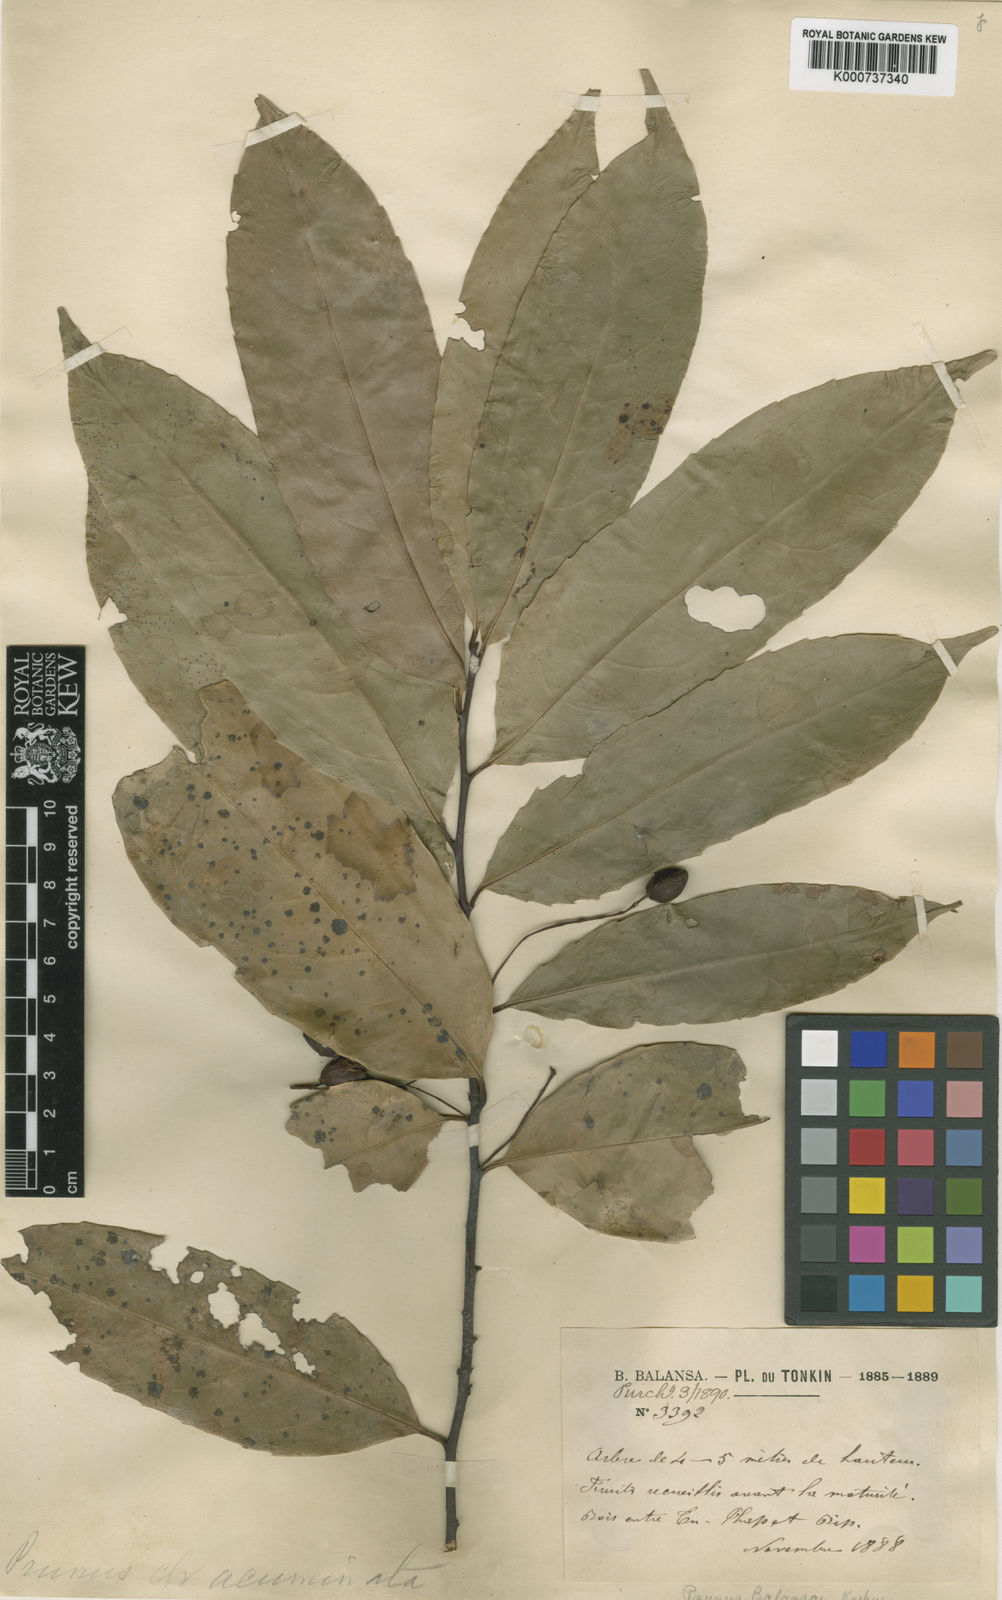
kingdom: Plantae
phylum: Tracheophyta
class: Magnoliopsida
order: Rosales
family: Rosaceae
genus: Prunus
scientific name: Prunus fordiana
